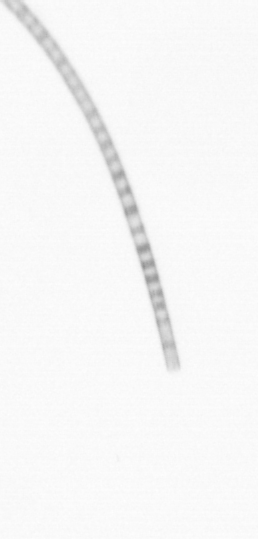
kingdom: Chromista
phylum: Ochrophyta
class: Bacillariophyceae
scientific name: Bacillariophyceae
